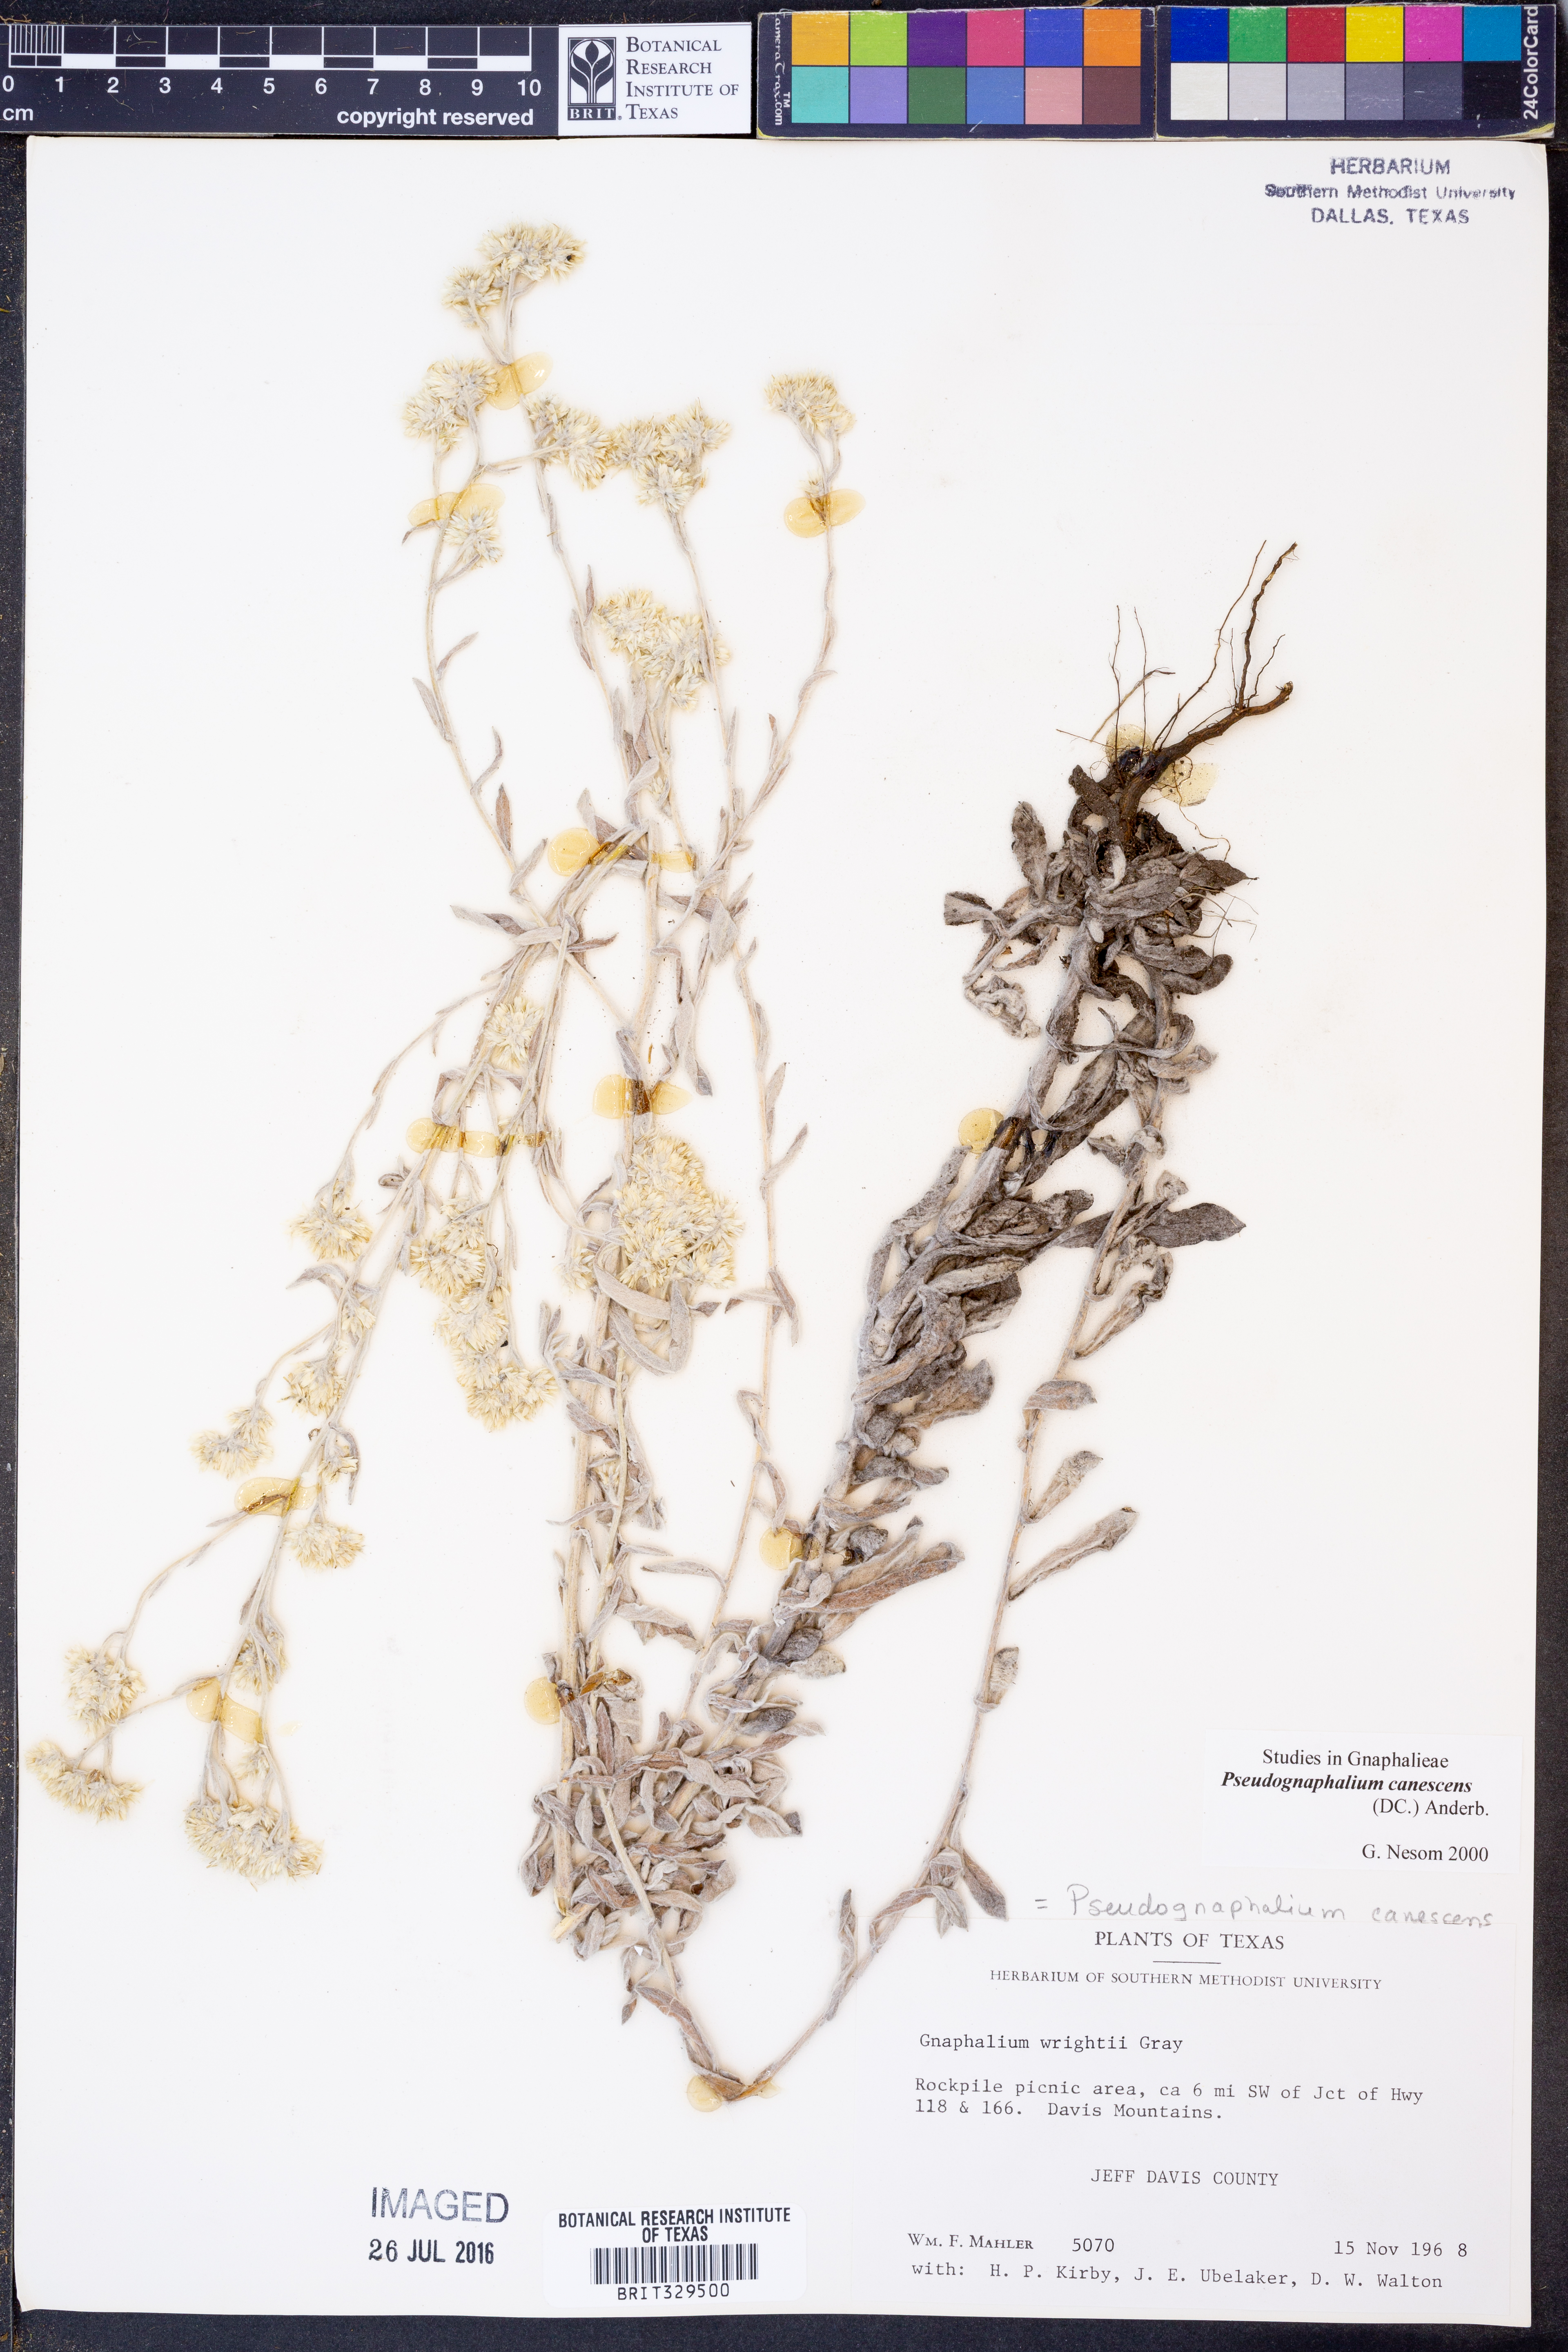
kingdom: Plantae
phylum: Tracheophyta
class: Magnoliopsida
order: Asterales
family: Asteraceae
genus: Pseudognaphalium
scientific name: Pseudognaphalium canescens
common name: Wright's rabbit-tobacco
